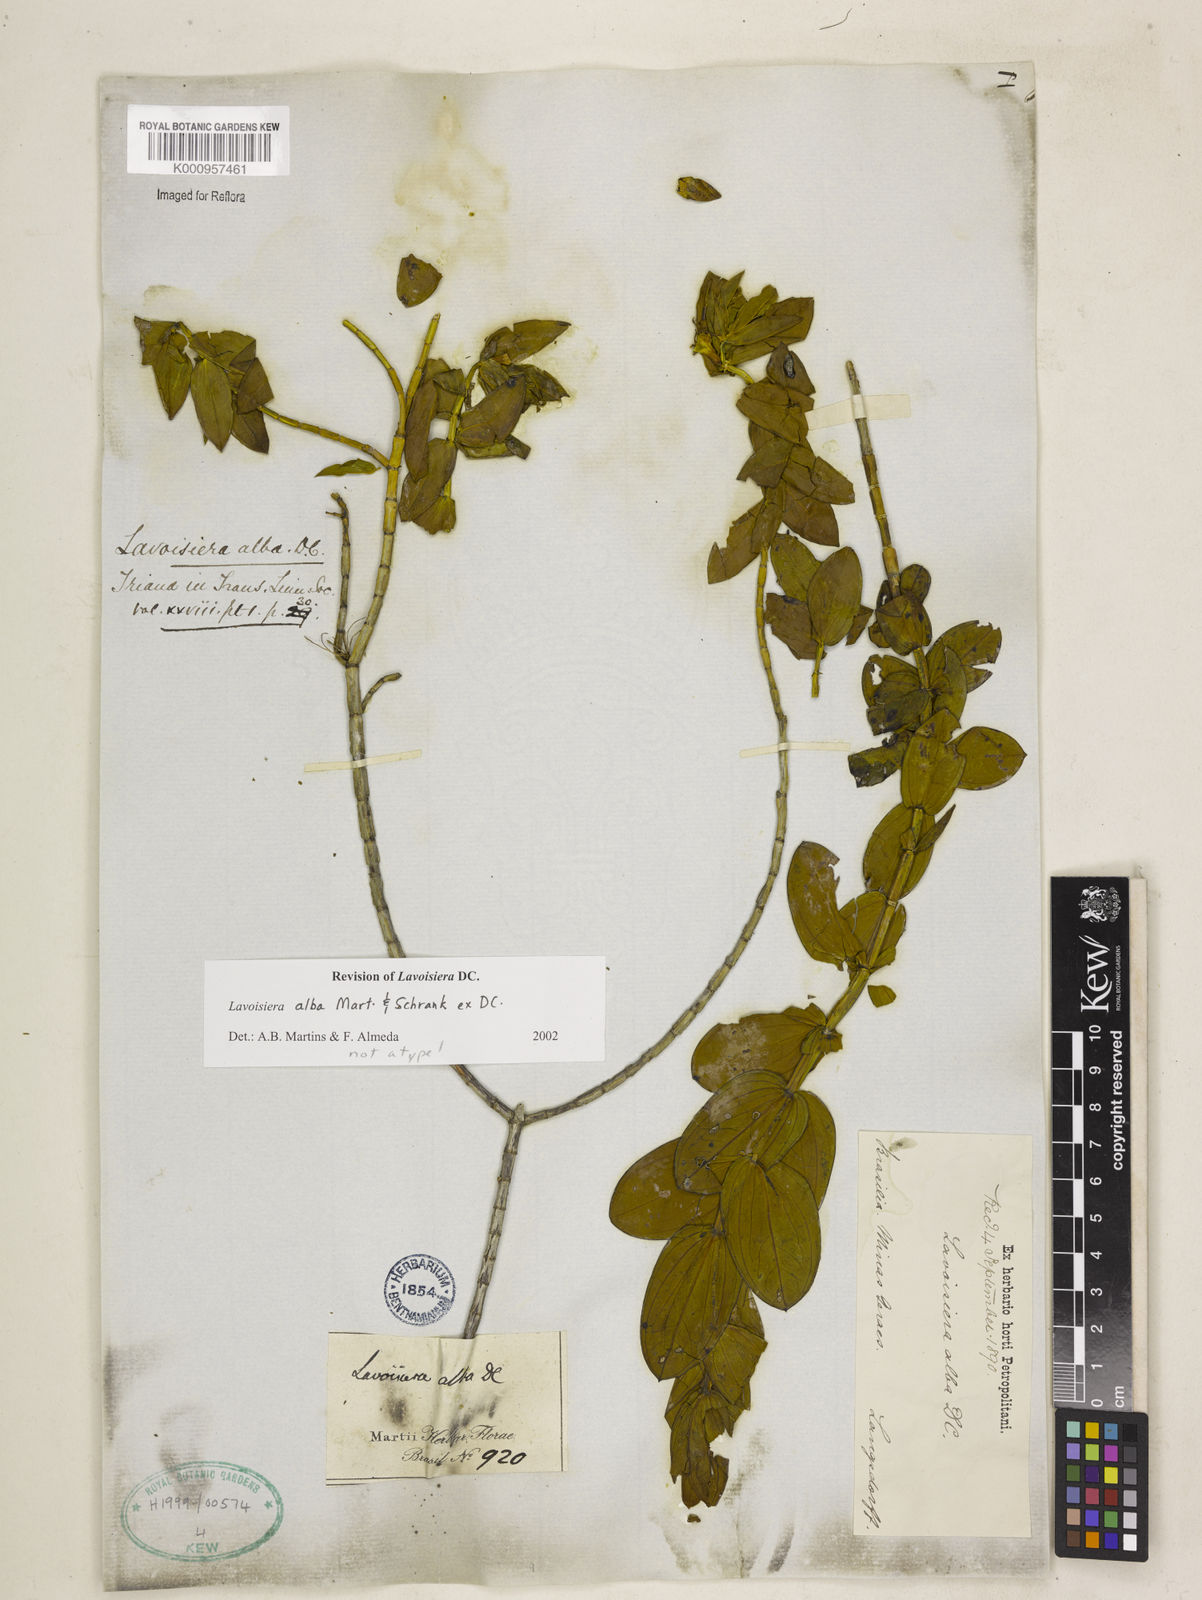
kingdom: Plantae
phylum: Tracheophyta
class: Magnoliopsida
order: Myrtales
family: Melastomataceae
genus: Microlicia
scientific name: Microlicia alba
